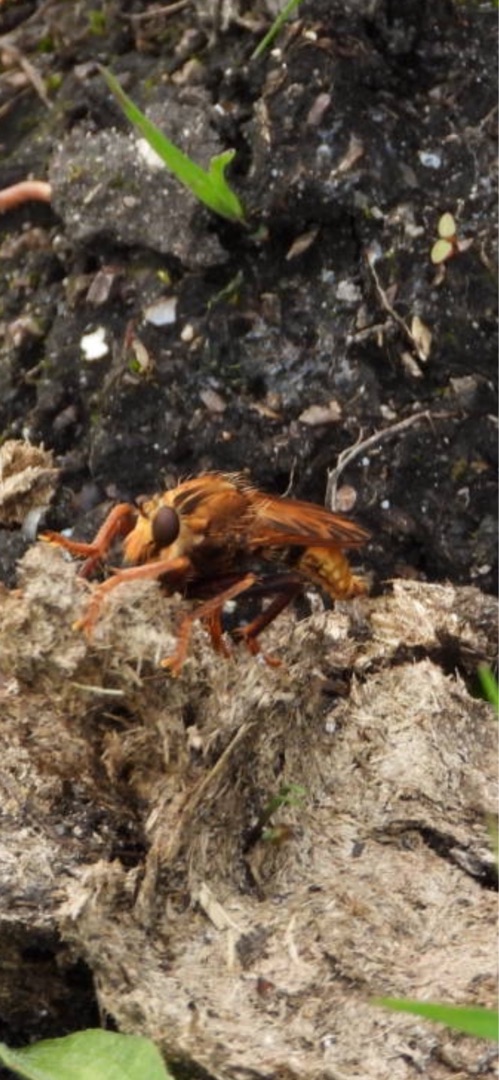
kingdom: Animalia
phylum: Arthropoda
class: Insecta
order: Diptera
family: Asilidae
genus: Asilus
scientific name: Asilus crabroniformis
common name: Stor gødningsrovflue
